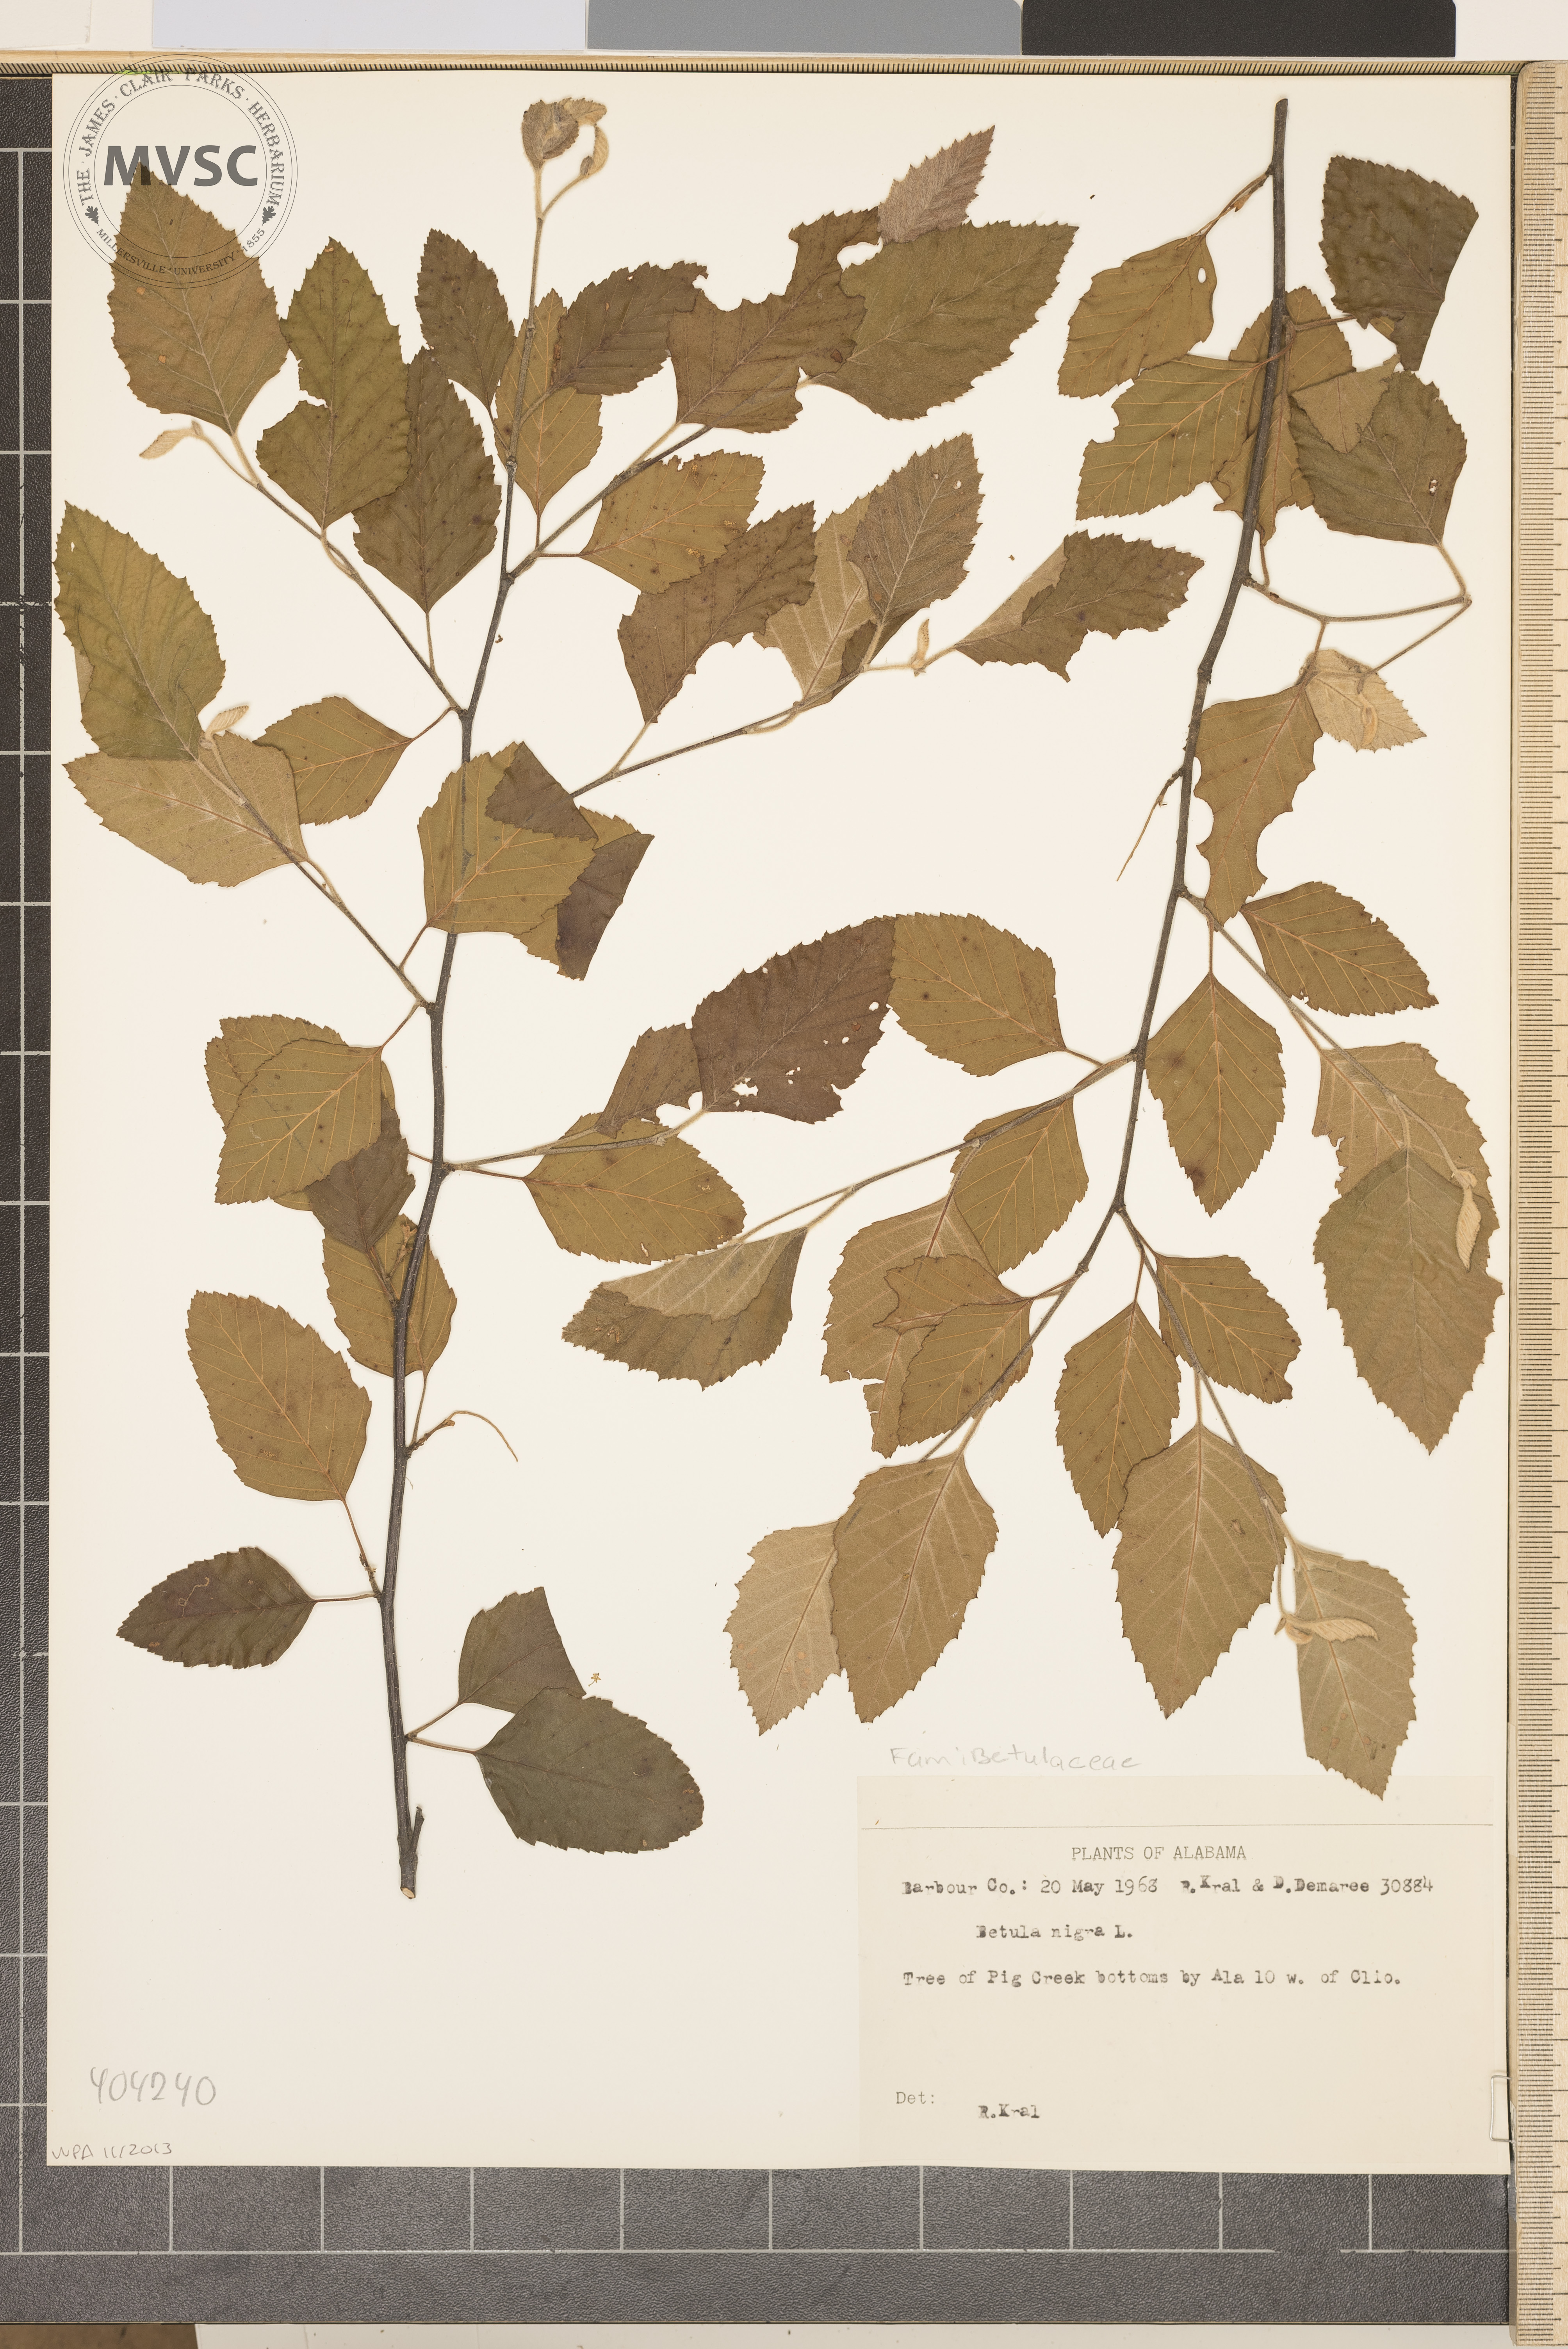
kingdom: Plantae
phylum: Tracheophyta
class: Magnoliopsida
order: Fagales
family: Betulaceae
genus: Betula
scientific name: Betula nigra
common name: Black birch
